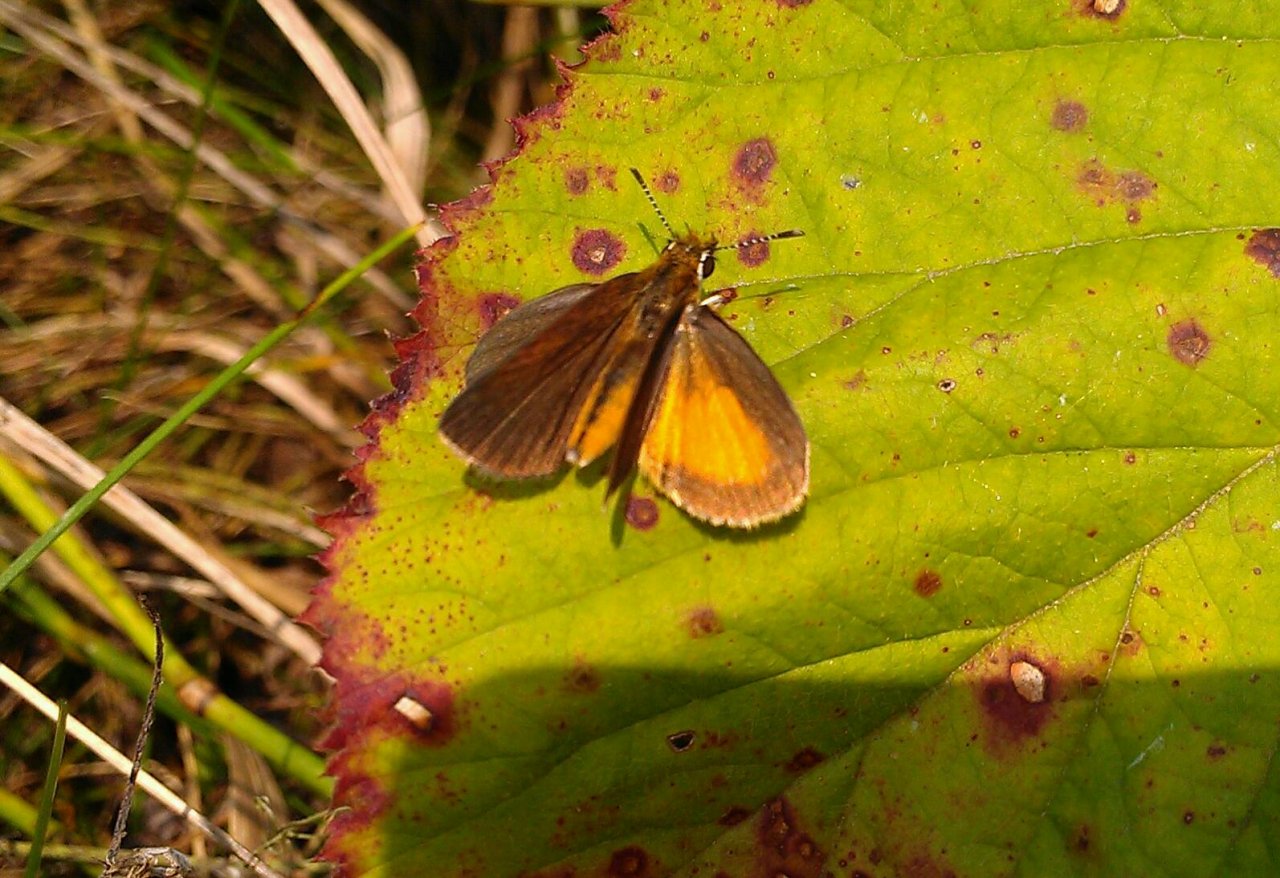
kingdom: Animalia
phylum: Arthropoda
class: Insecta
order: Lepidoptera
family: Hesperiidae
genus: Ancyloxypha
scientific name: Ancyloxypha numitor
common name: Least Skipper
